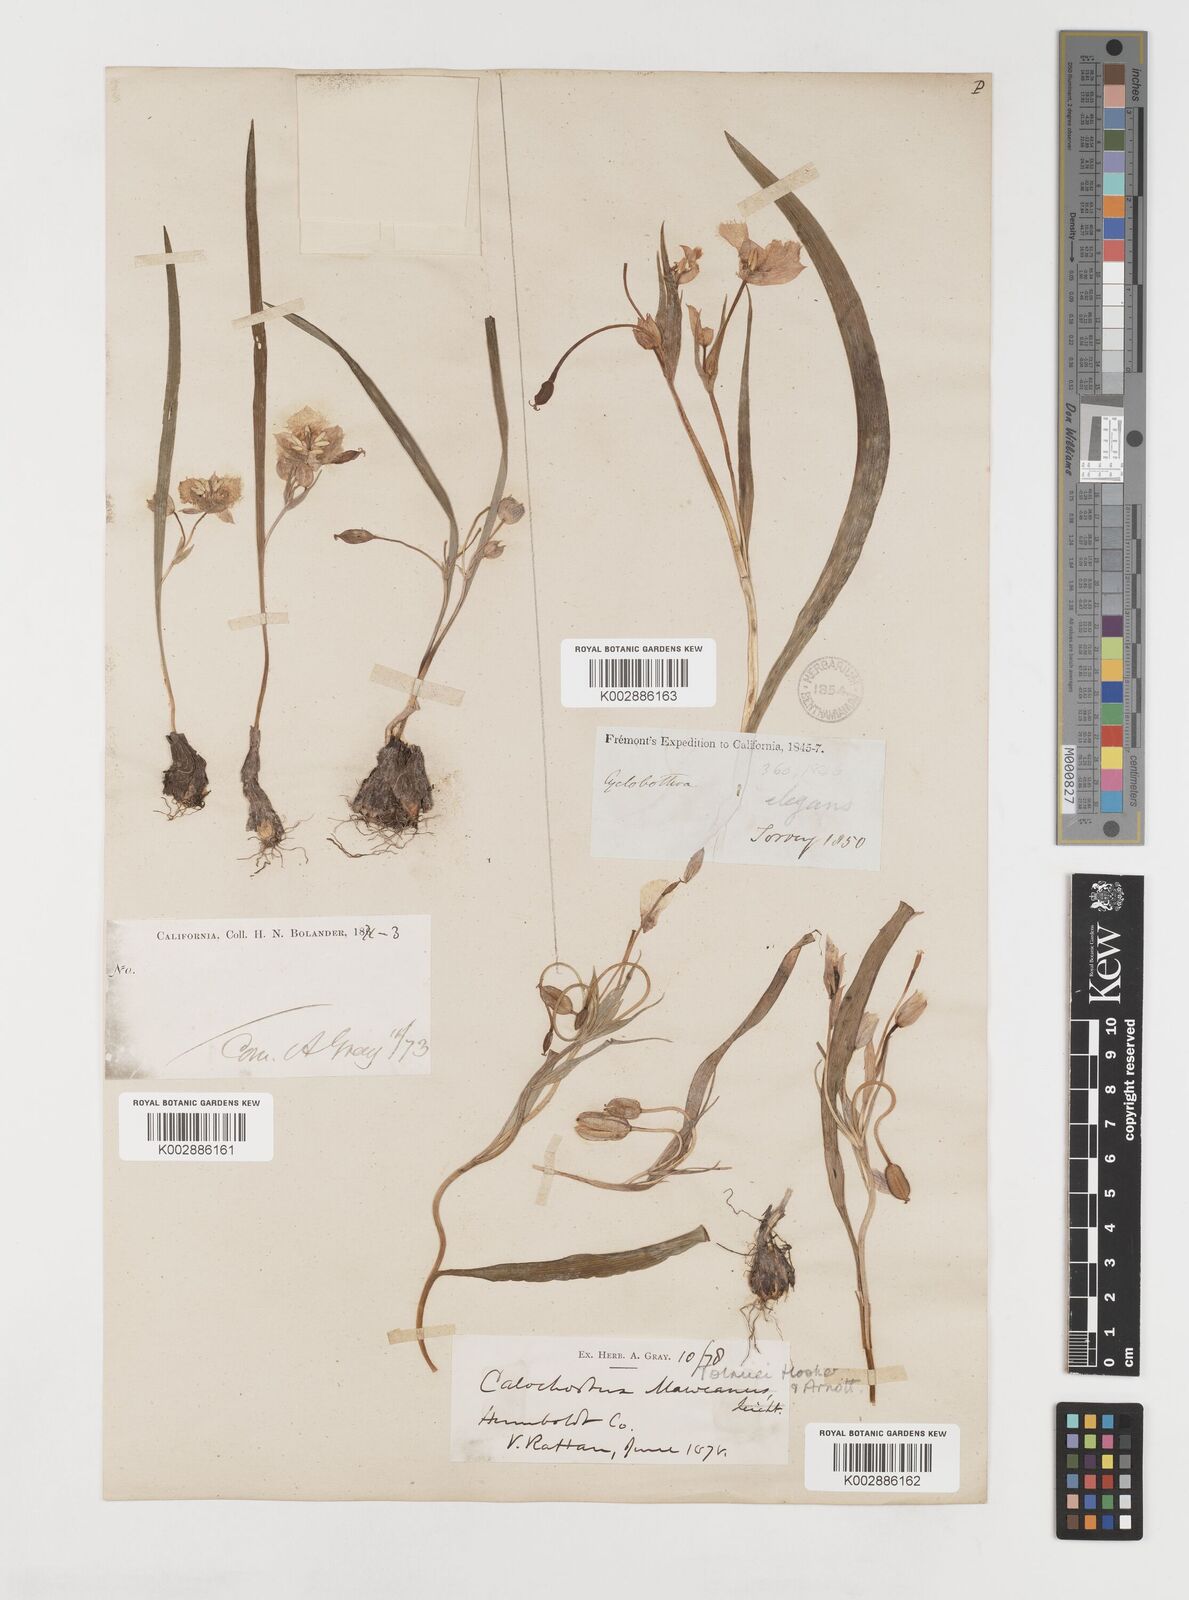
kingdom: Plantae
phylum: Tracheophyta
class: Liliopsida
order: Liliales
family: Liliaceae
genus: Calochortus
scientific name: Calochortus tolmiei
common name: Pussy-ears
